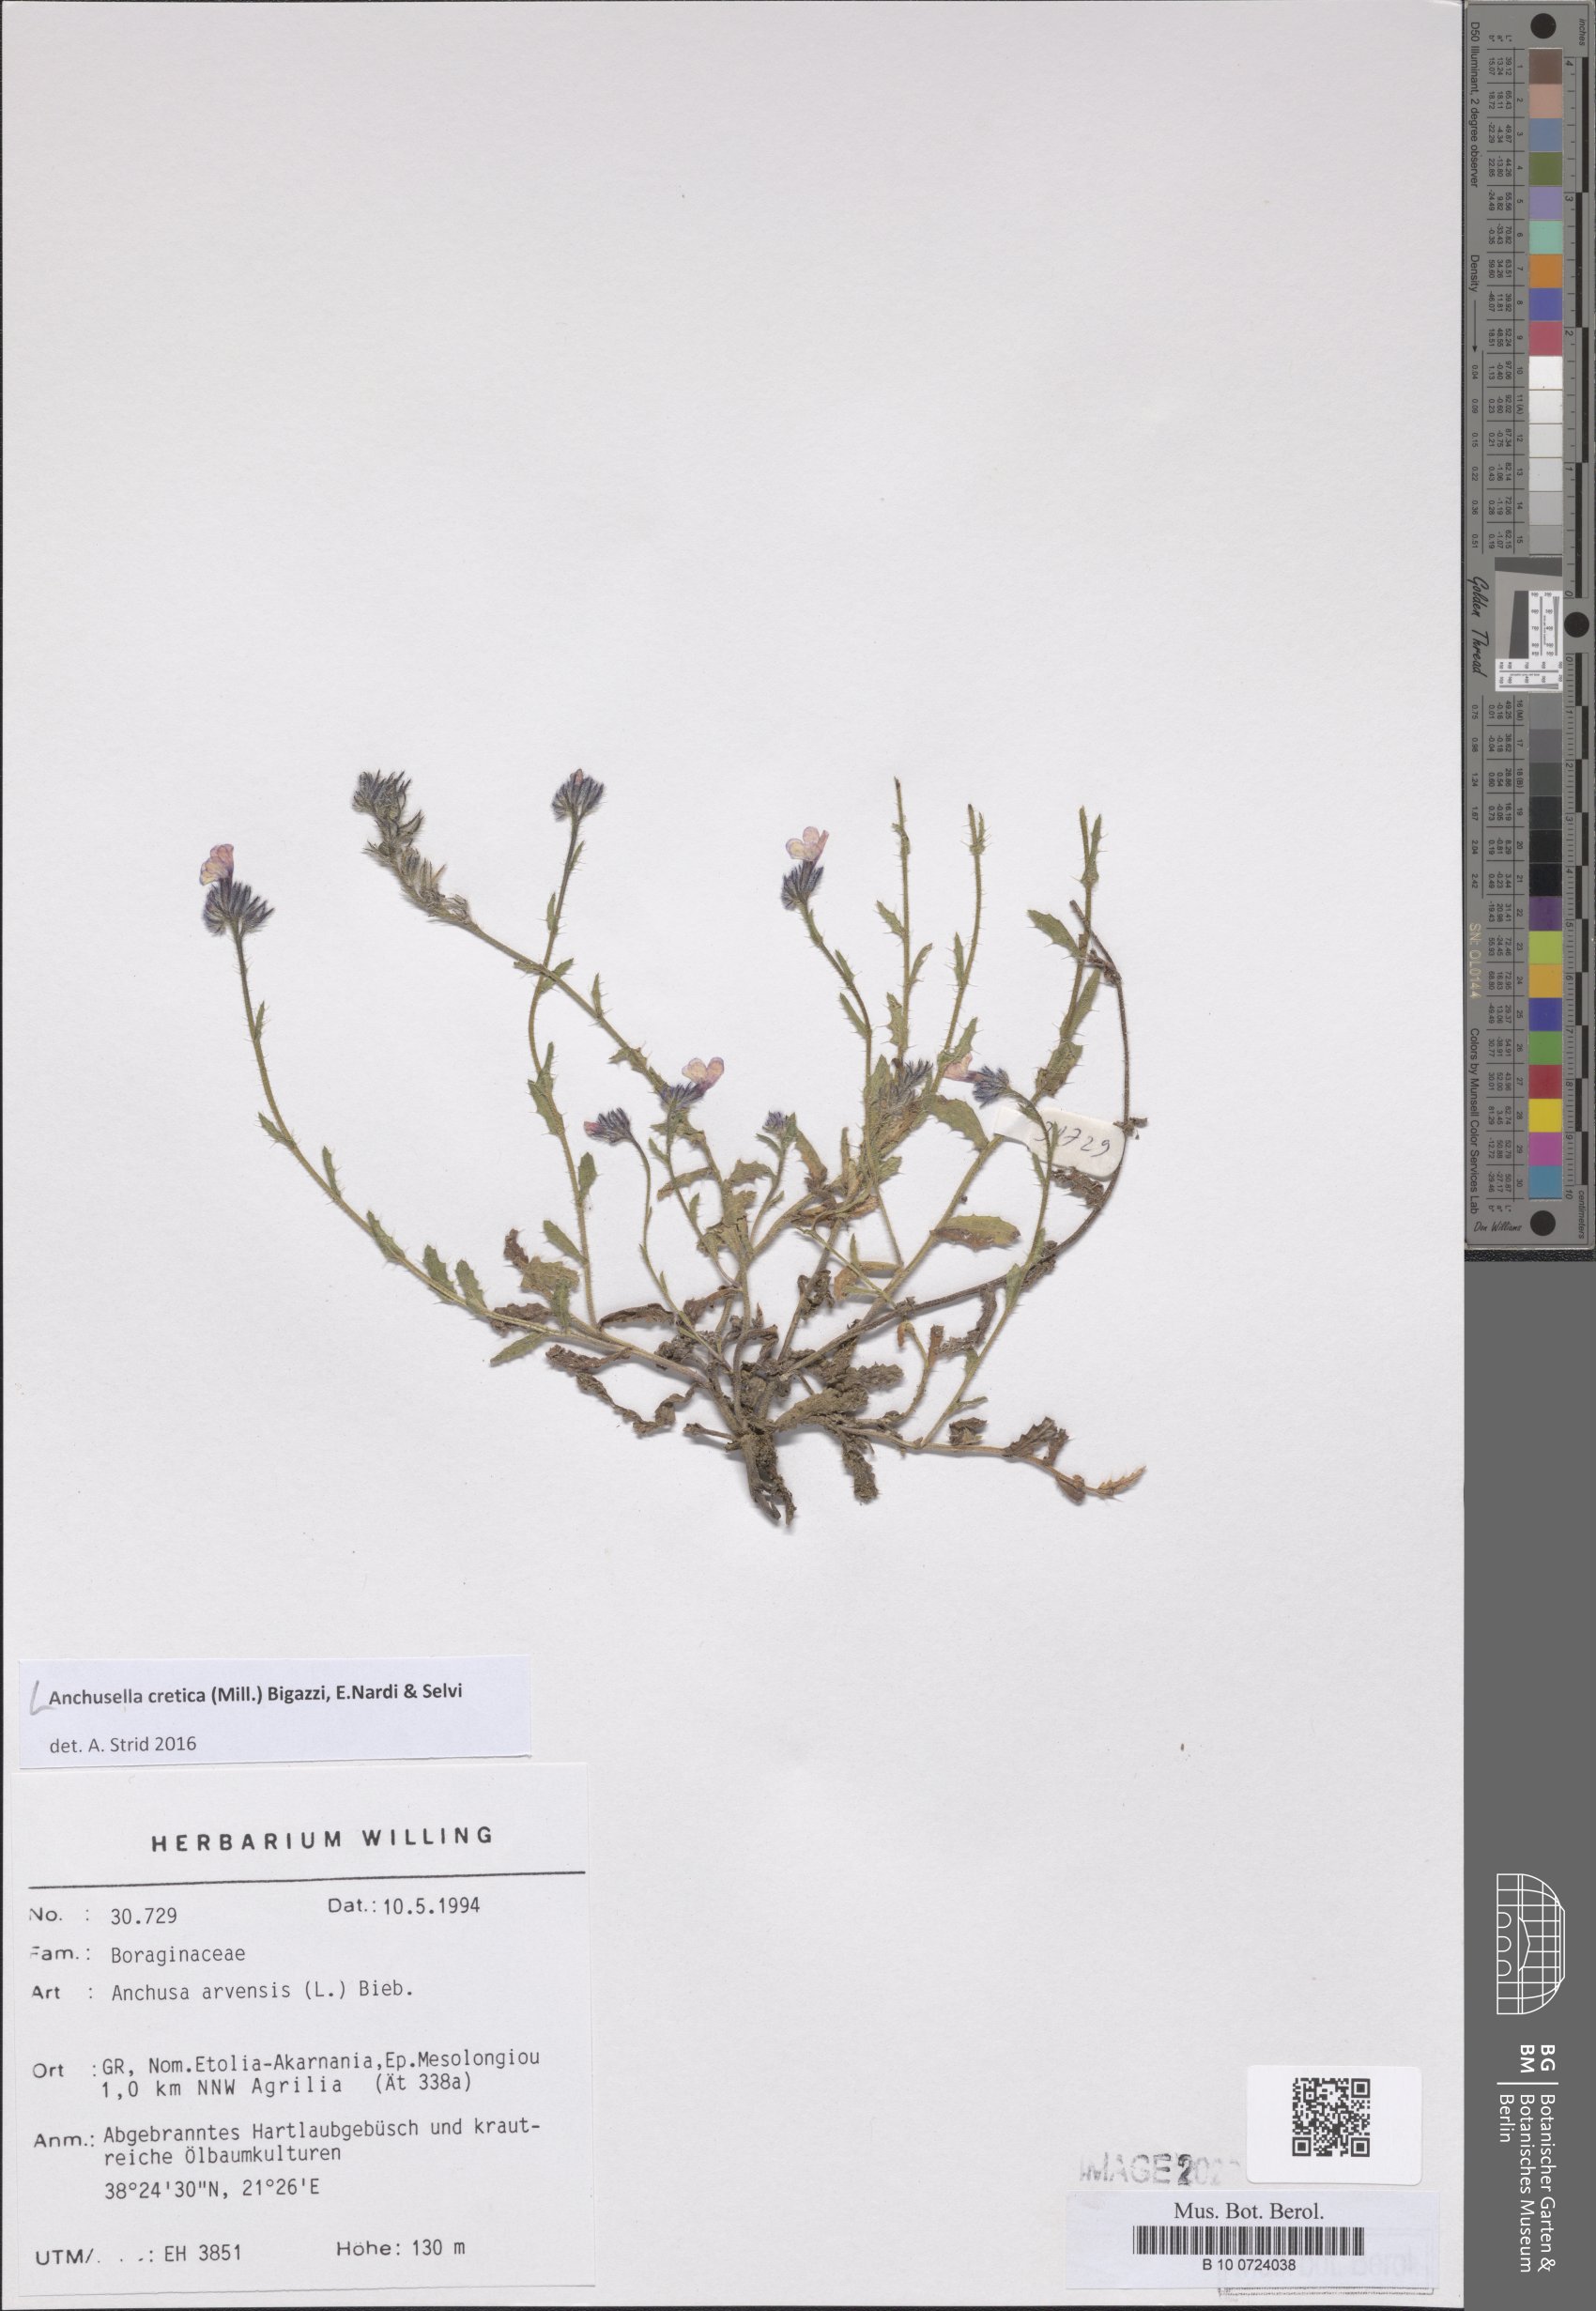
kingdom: Plantae
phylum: Tracheophyta
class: Magnoliopsida
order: Boraginales
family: Boraginaceae
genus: Anchusella
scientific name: Anchusella cretica
